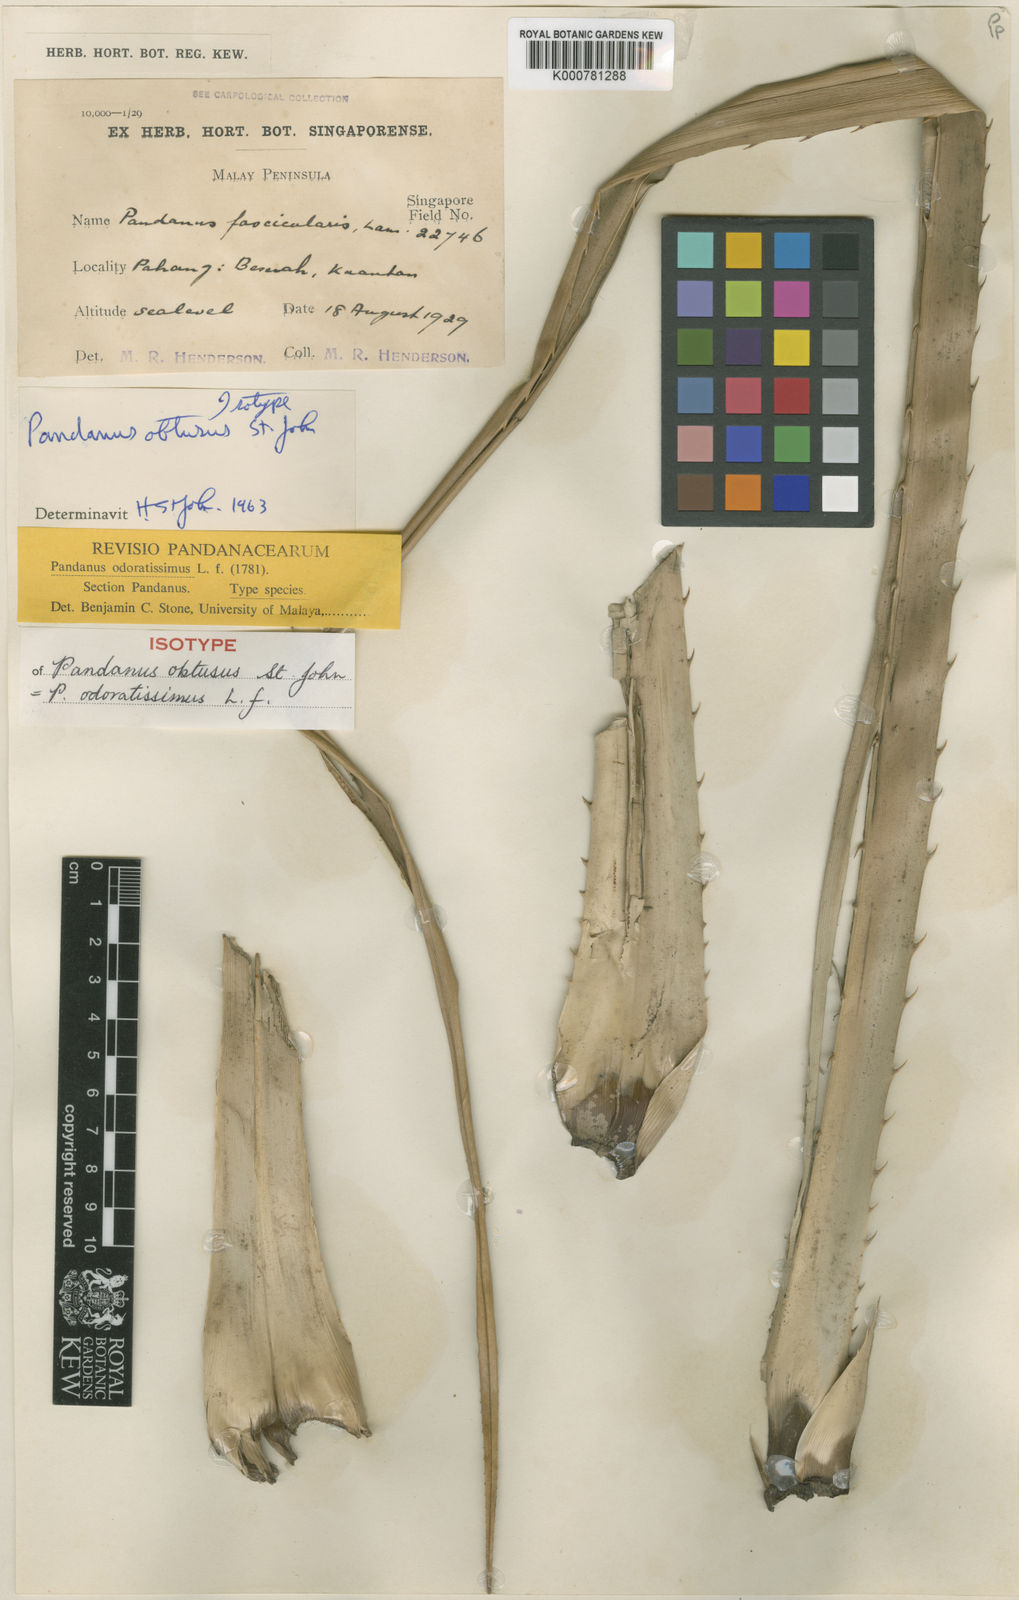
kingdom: Plantae
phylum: Tracheophyta
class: Liliopsida
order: Pandanales
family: Pandanaceae
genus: Pandanus
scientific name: Pandanus odorifer
